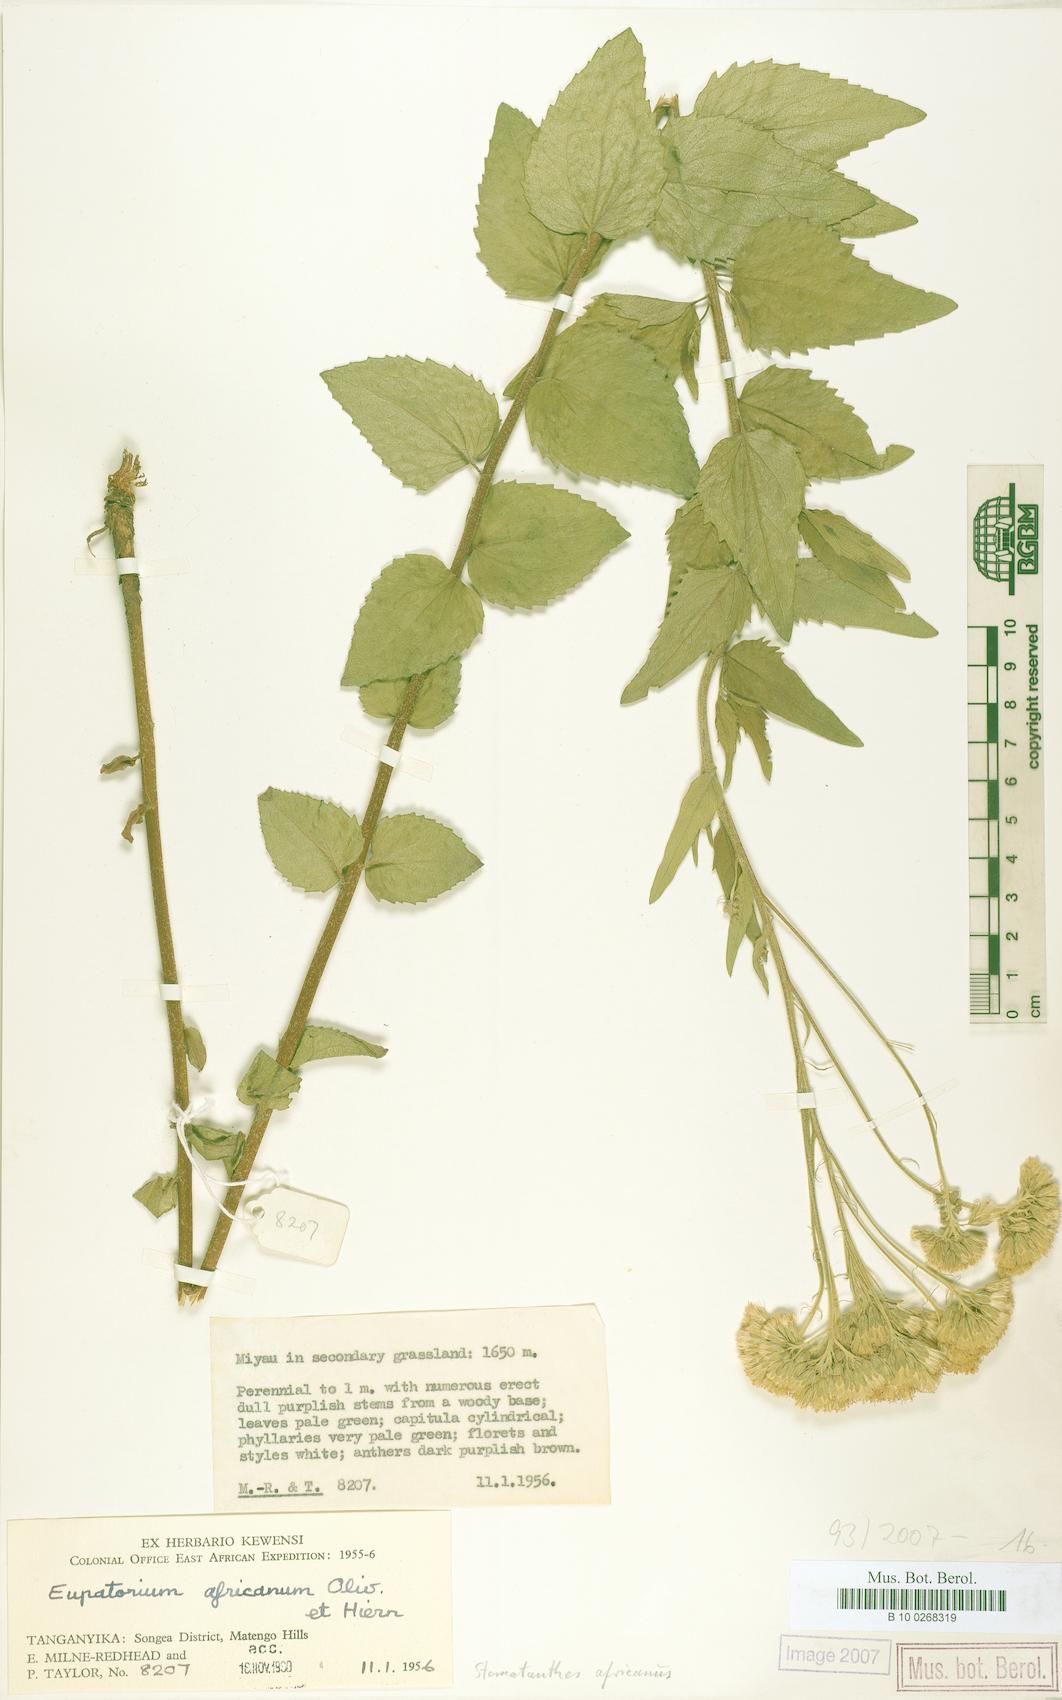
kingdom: Plantae
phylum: Tracheophyta
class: Magnoliopsida
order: Asterales
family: Asteraceae
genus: Stomatanthes
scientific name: Stomatanthes africanus
